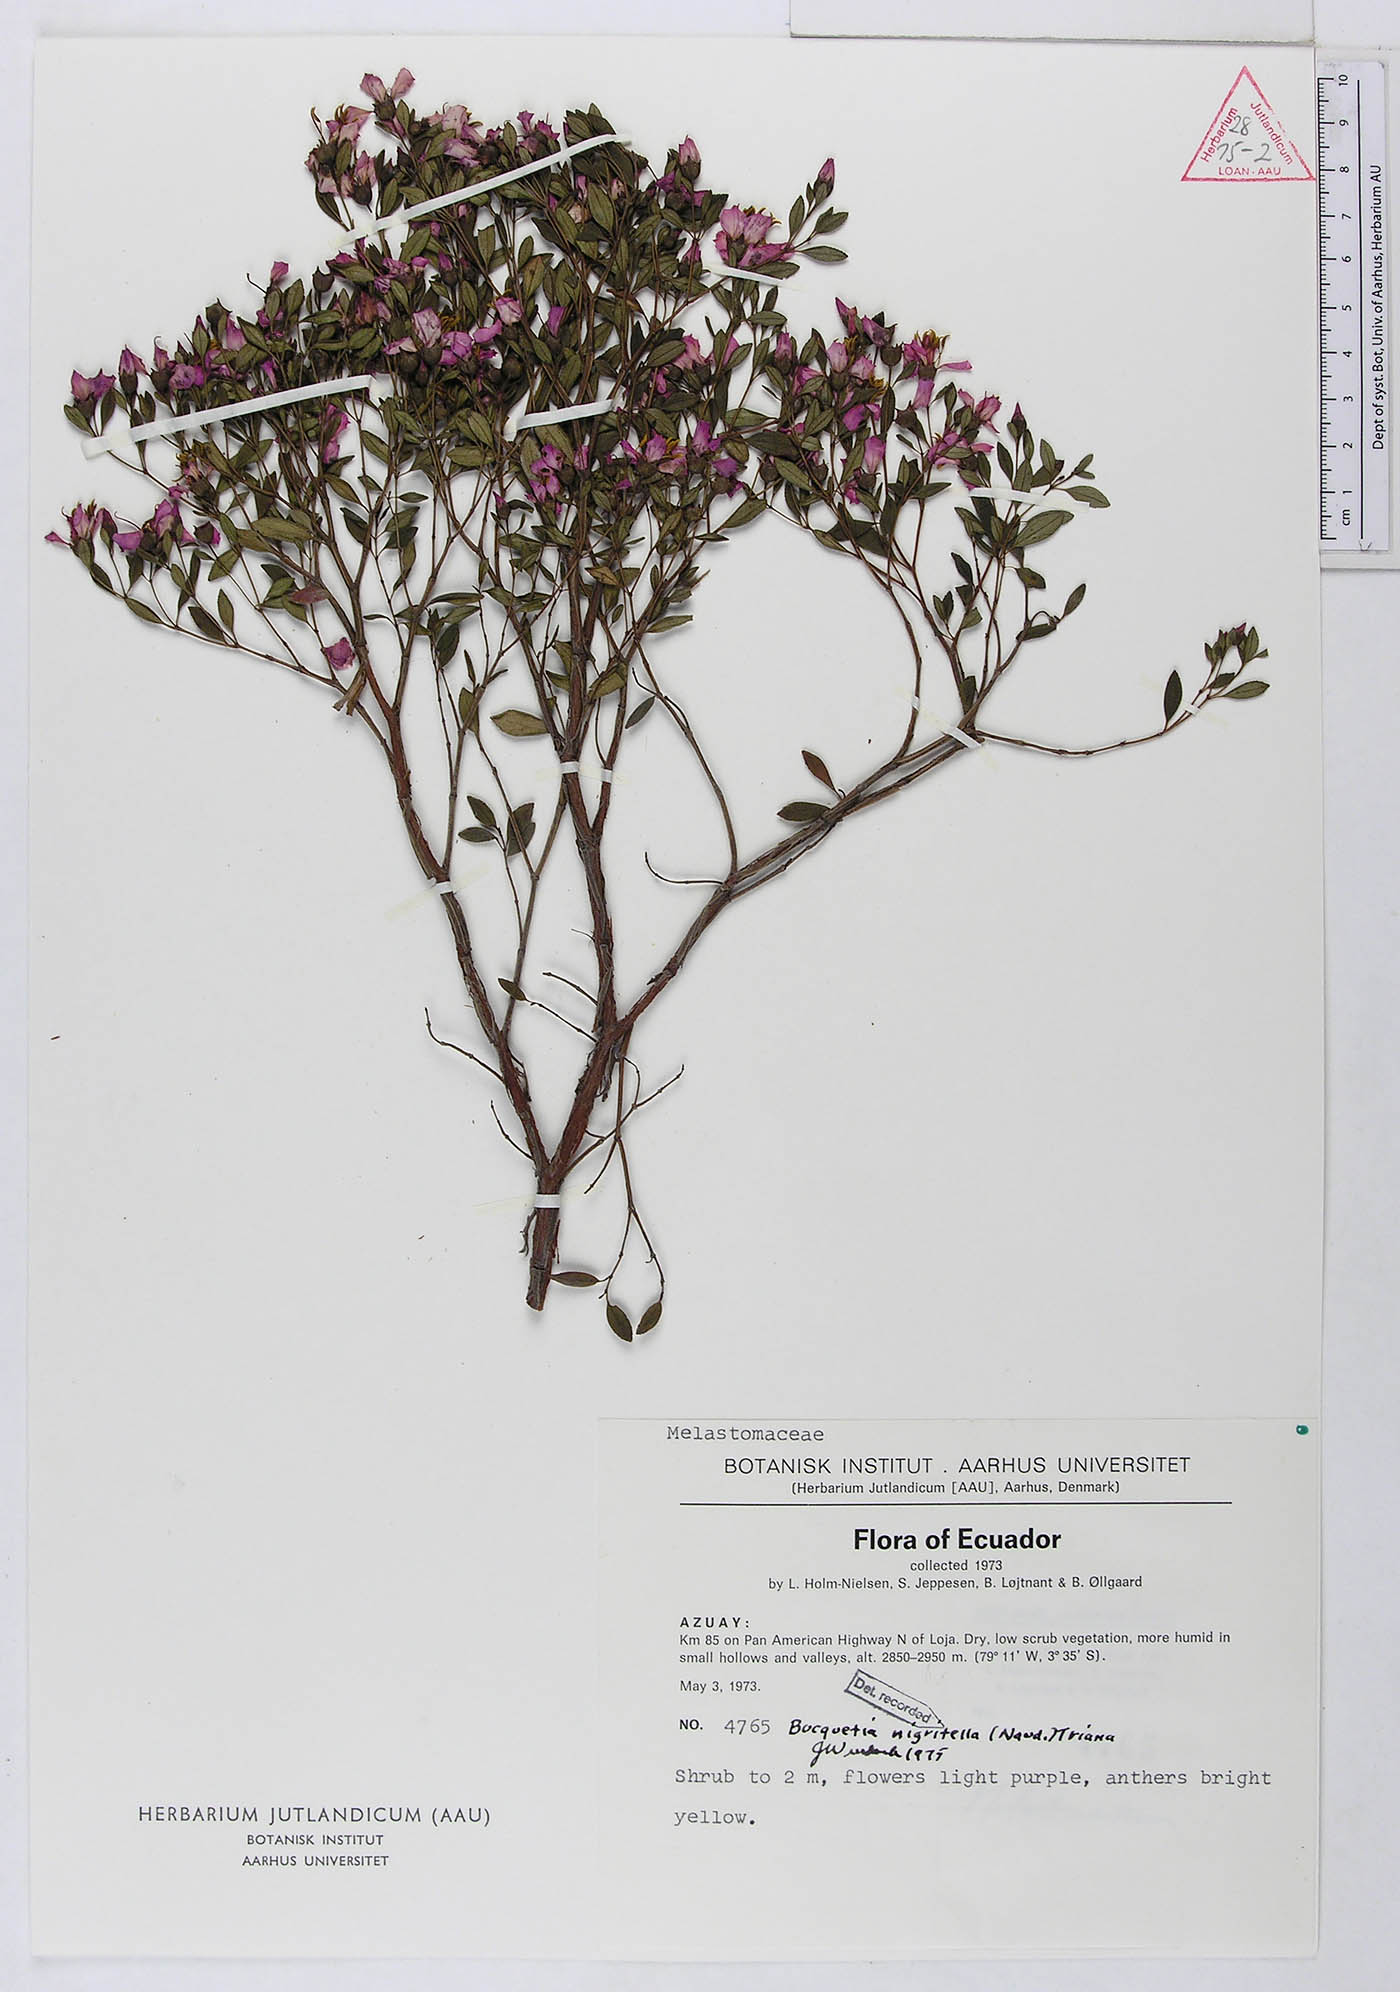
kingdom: Plantae
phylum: Tracheophyta
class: Magnoliopsida
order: Myrtales
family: Melastomataceae
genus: Bucquetia
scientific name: Bucquetia nigritella
